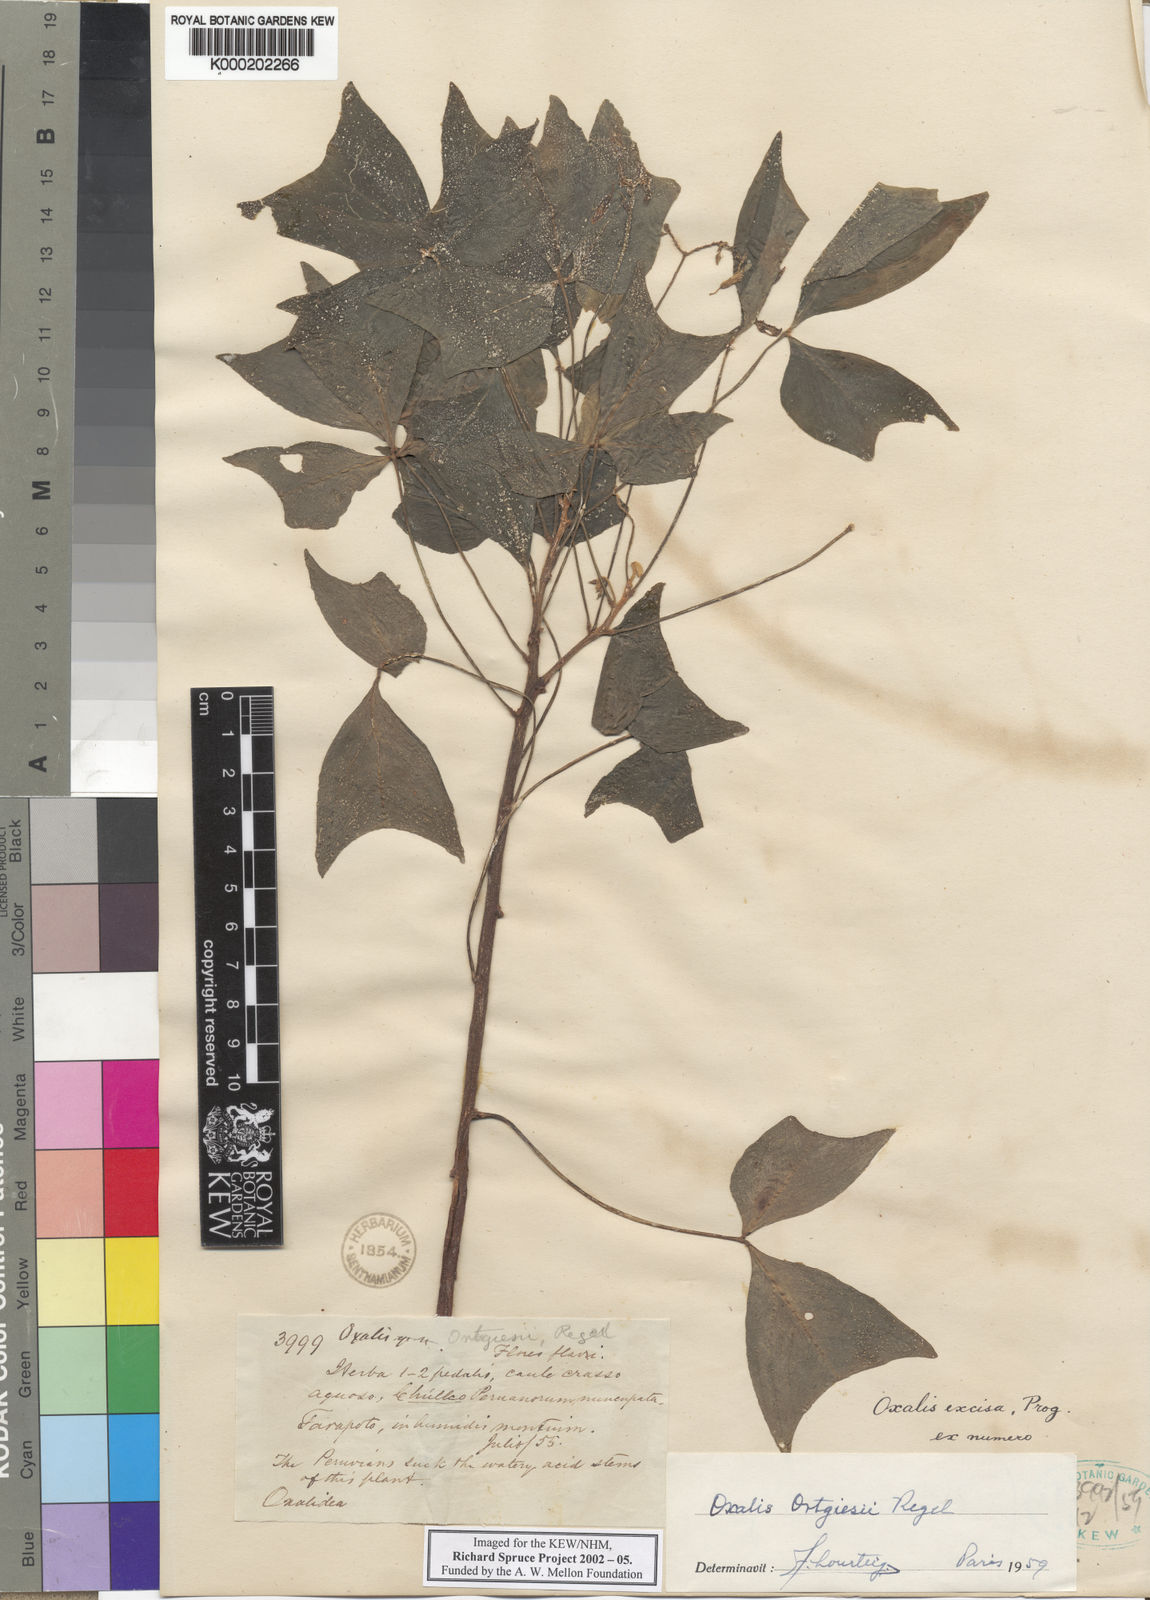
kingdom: Plantae
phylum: Tracheophyta
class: Magnoliopsida
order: Oxalidales
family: Oxalidaceae
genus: Oxalis
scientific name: Oxalis ortgiesii
